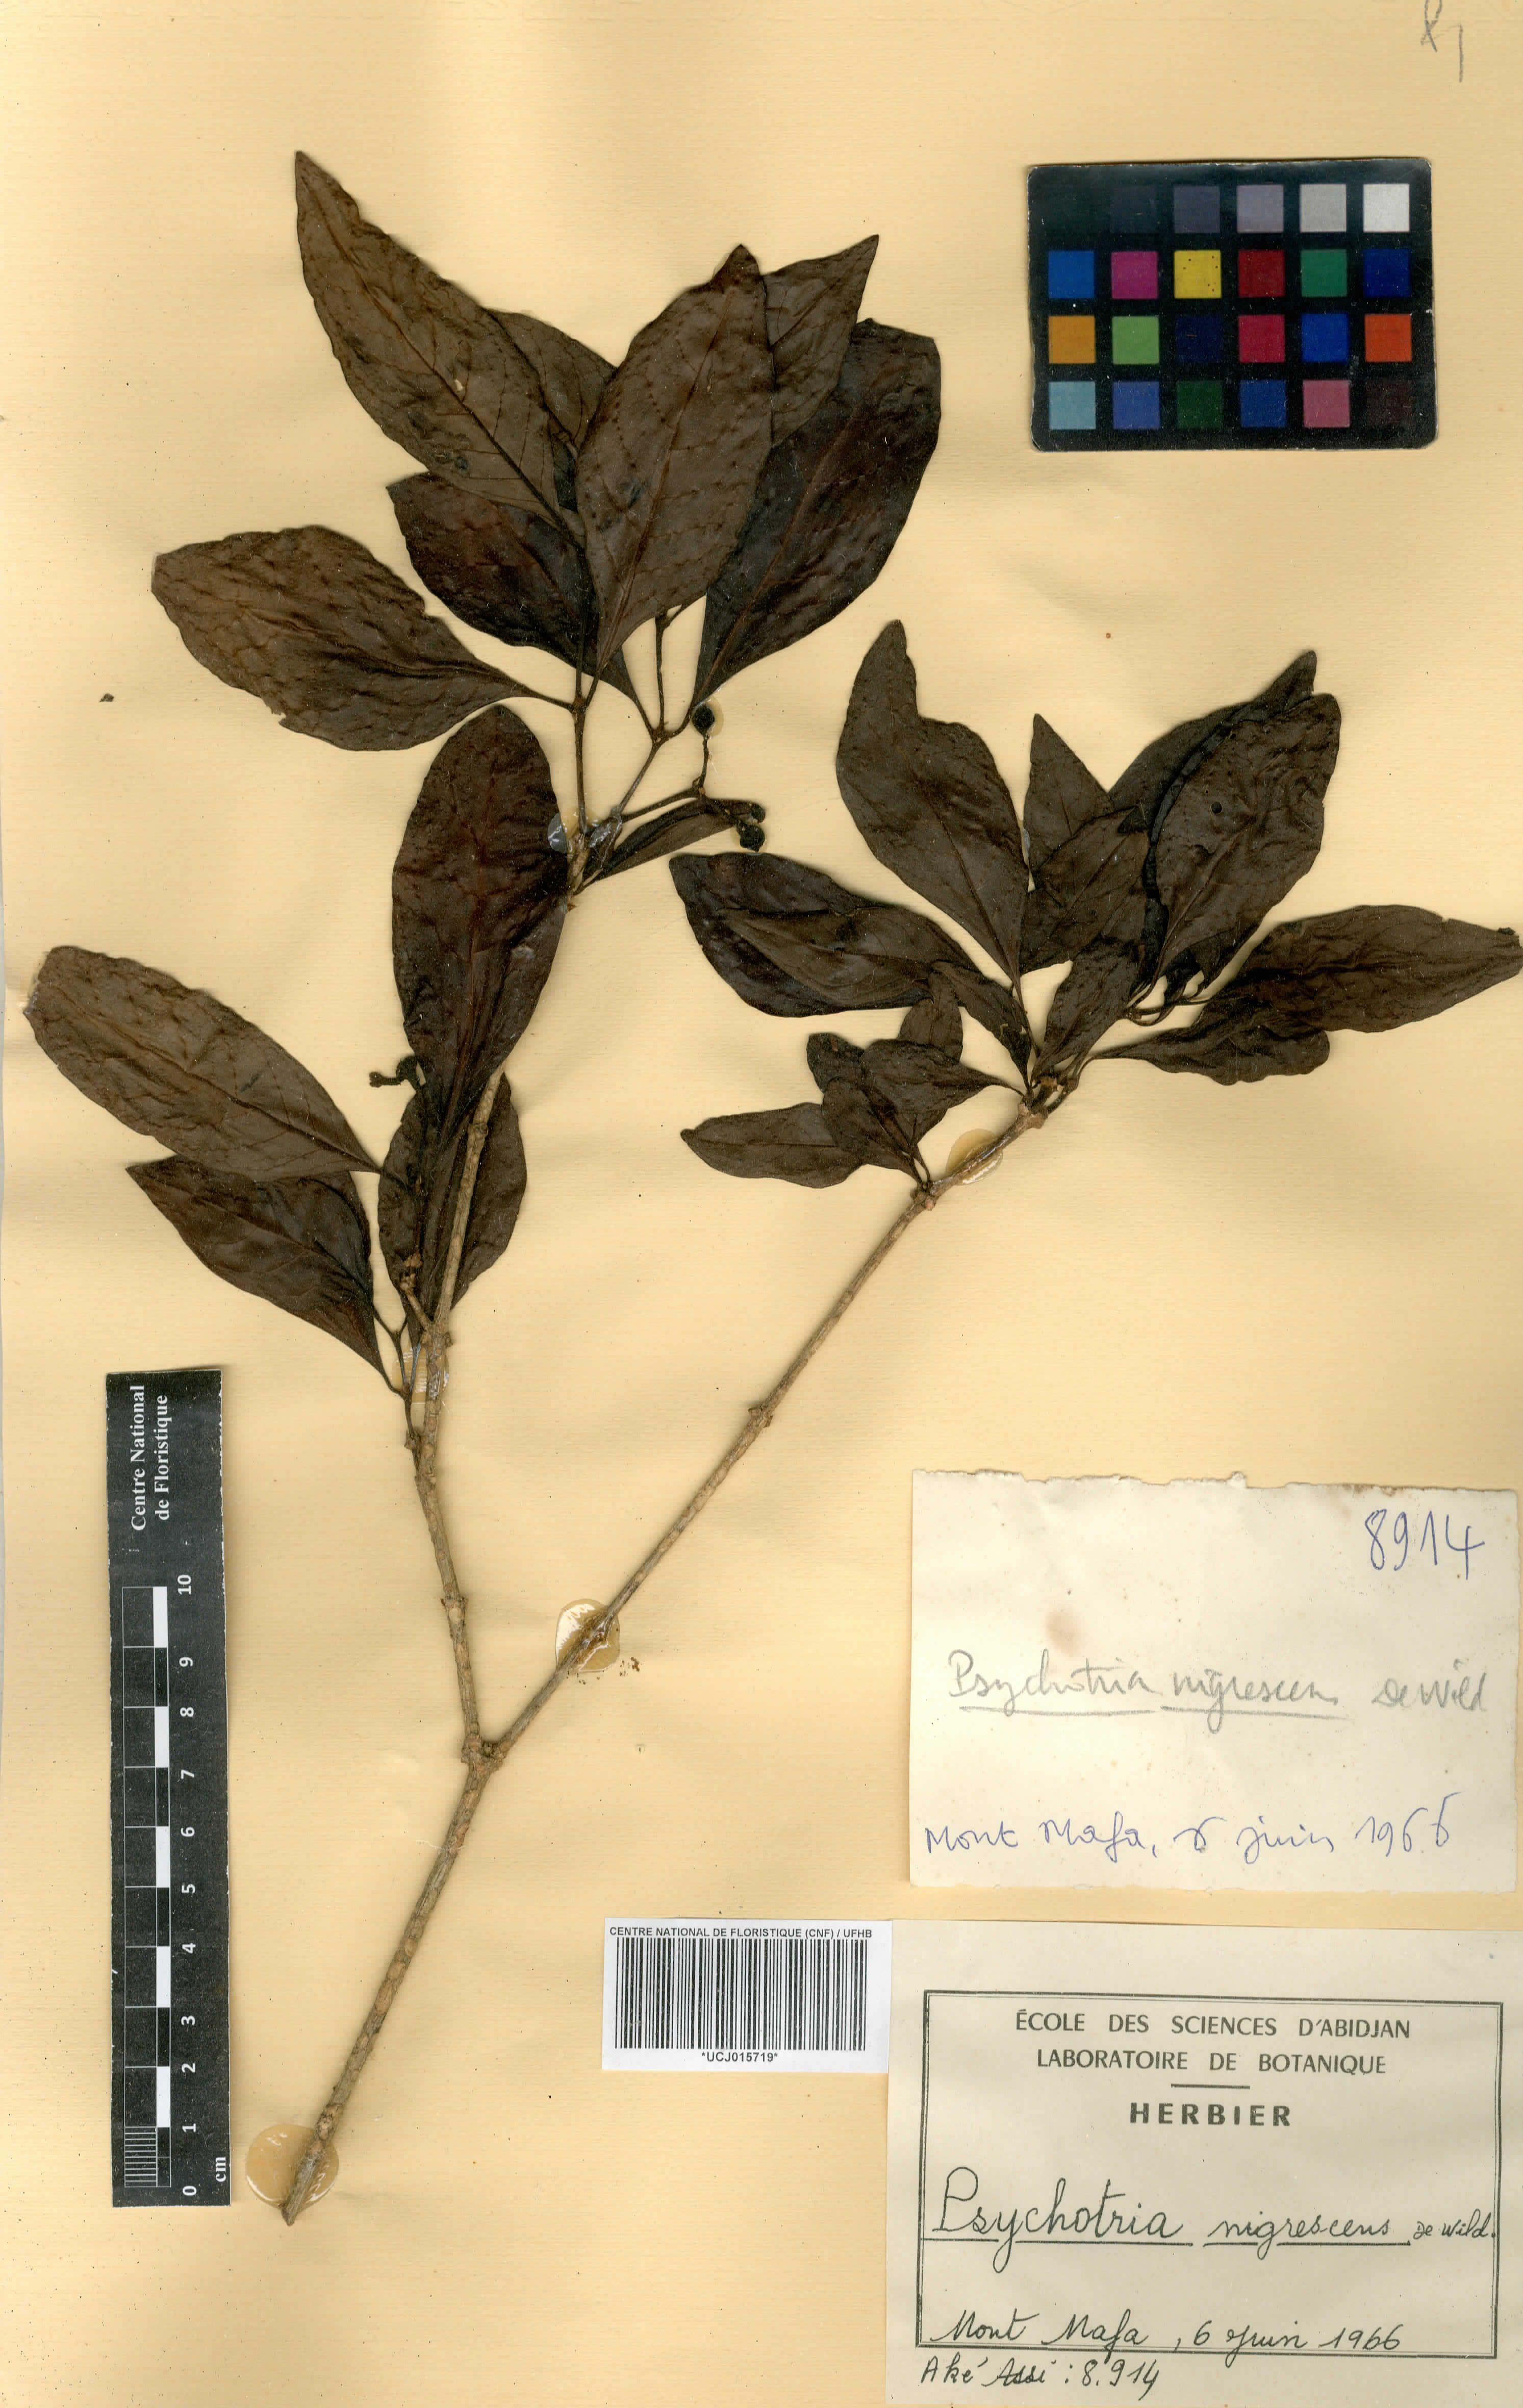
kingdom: Plantae
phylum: Tracheophyta
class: Magnoliopsida
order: Gentianales
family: Rubiaceae
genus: Psychotria
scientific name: Psychotria nigrescens
